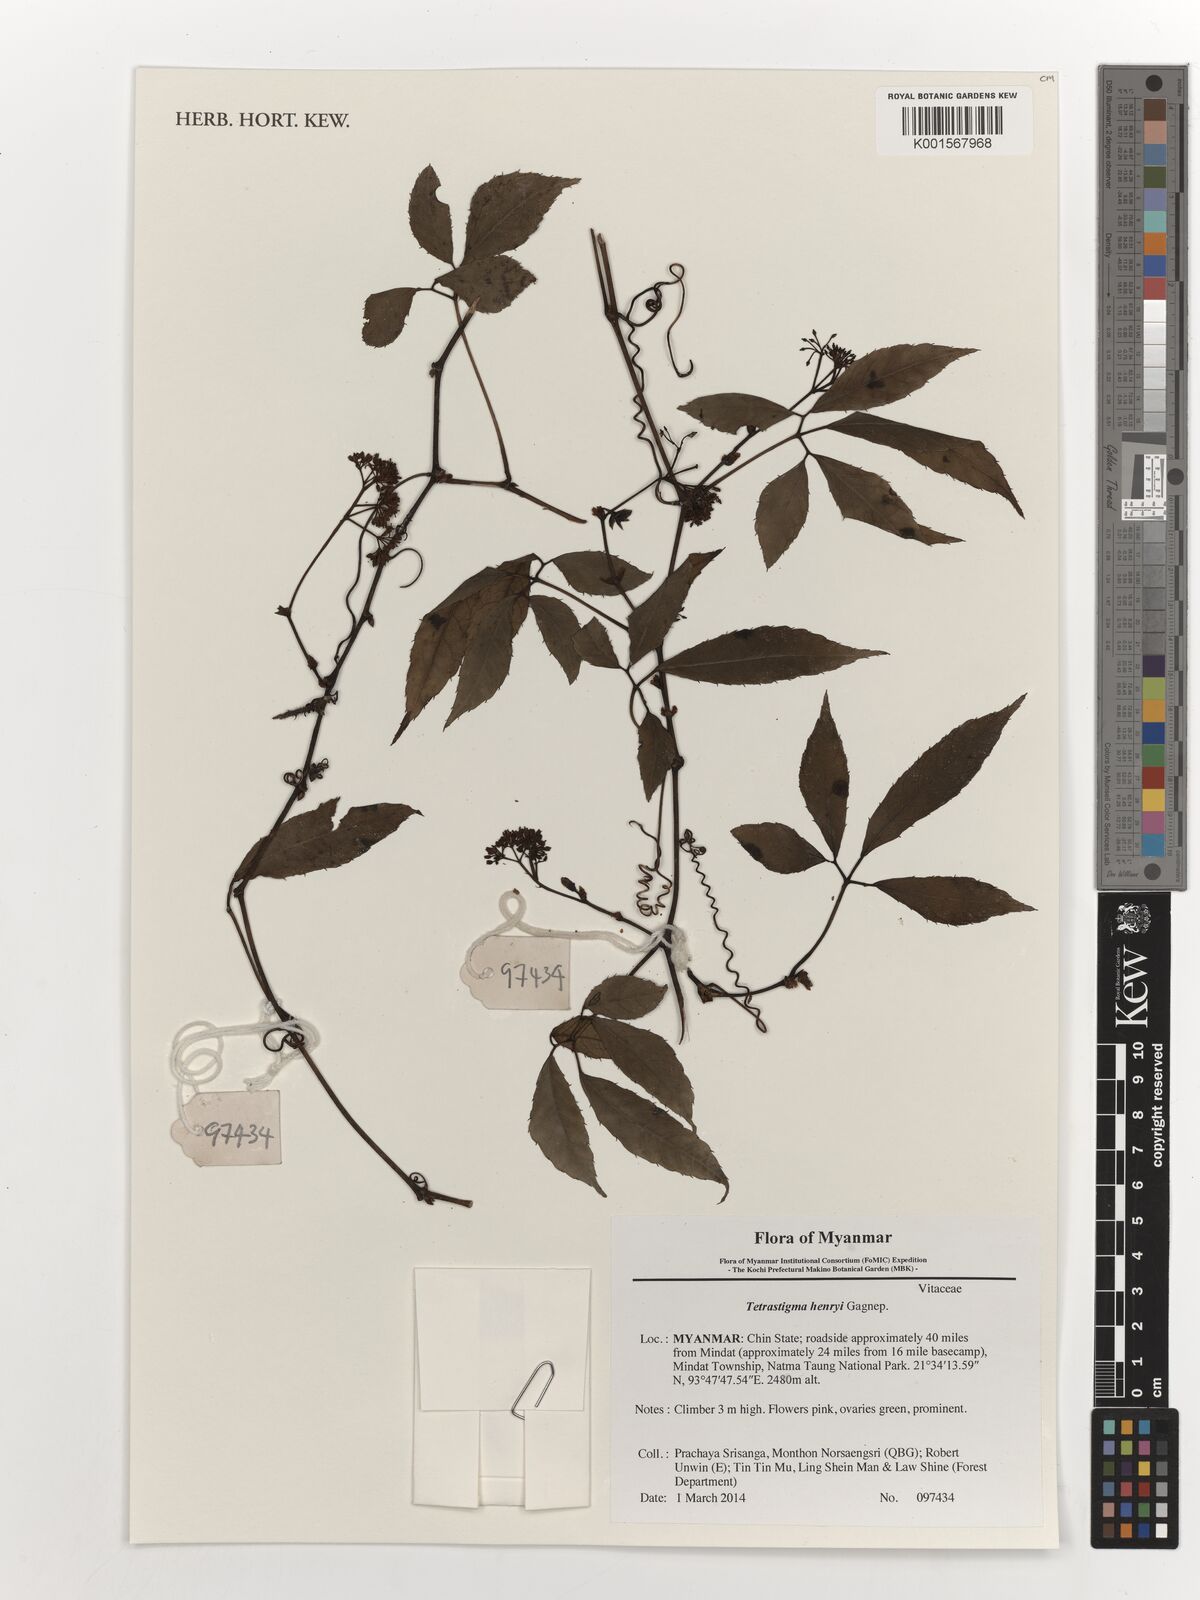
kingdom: Plantae
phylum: Tracheophyta
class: Magnoliopsida
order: Vitales
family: Vitaceae
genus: Tetrastigma
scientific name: Tetrastigma dubium
